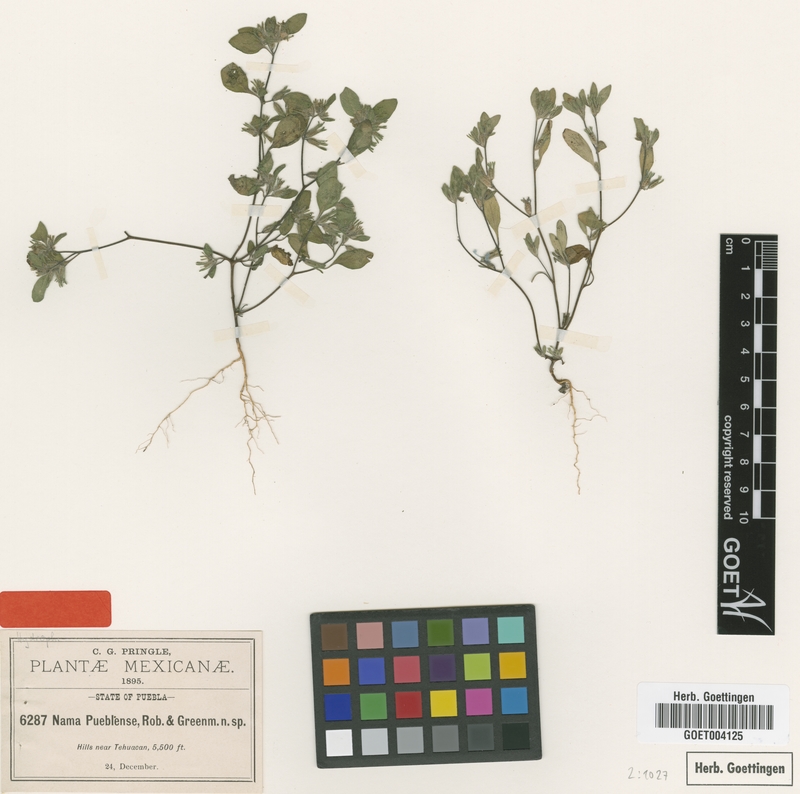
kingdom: Plantae
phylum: Tracheophyta
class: Magnoliopsida
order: Boraginales
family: Namaceae
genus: Nama
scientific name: Nama dichotoma
